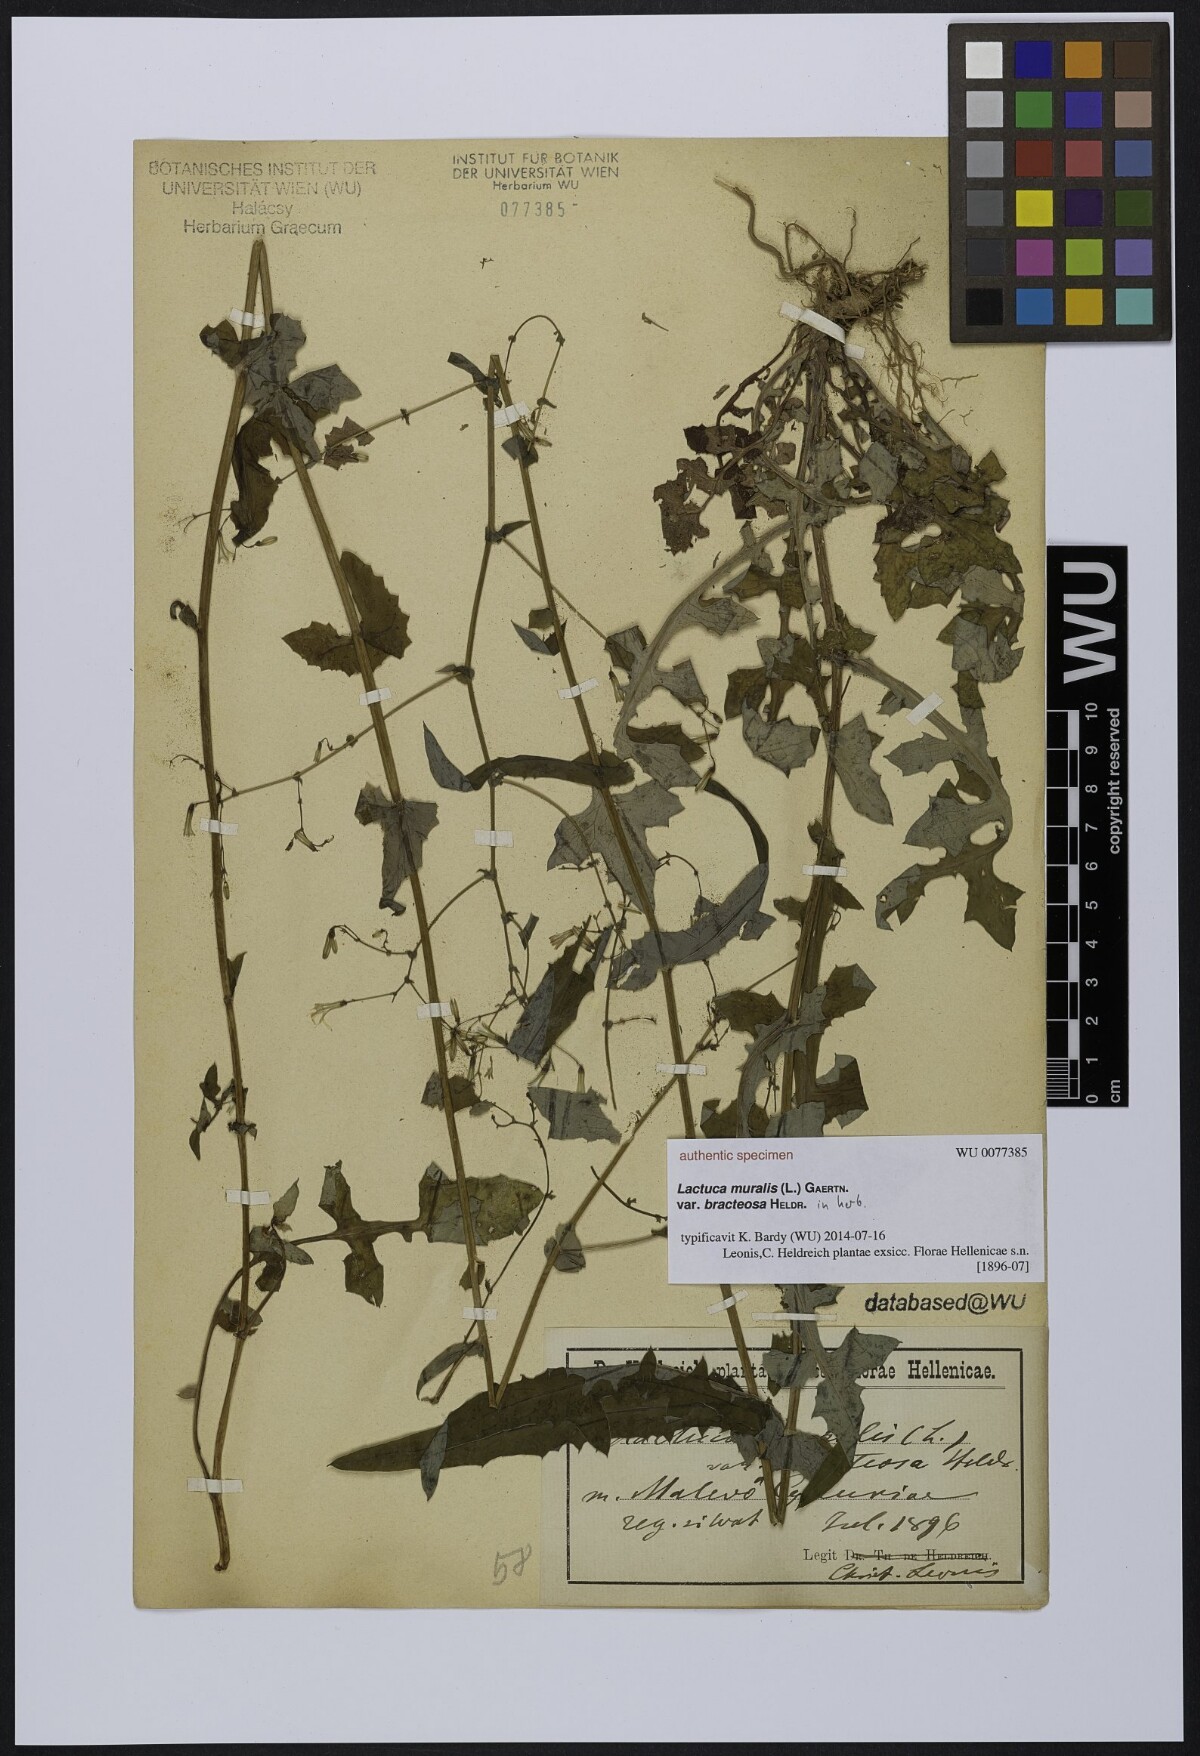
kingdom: Plantae
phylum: Tracheophyta
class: Magnoliopsida
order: Asterales
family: Asteraceae
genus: Mycelis
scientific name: Mycelis muralis
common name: Wall lettuce
